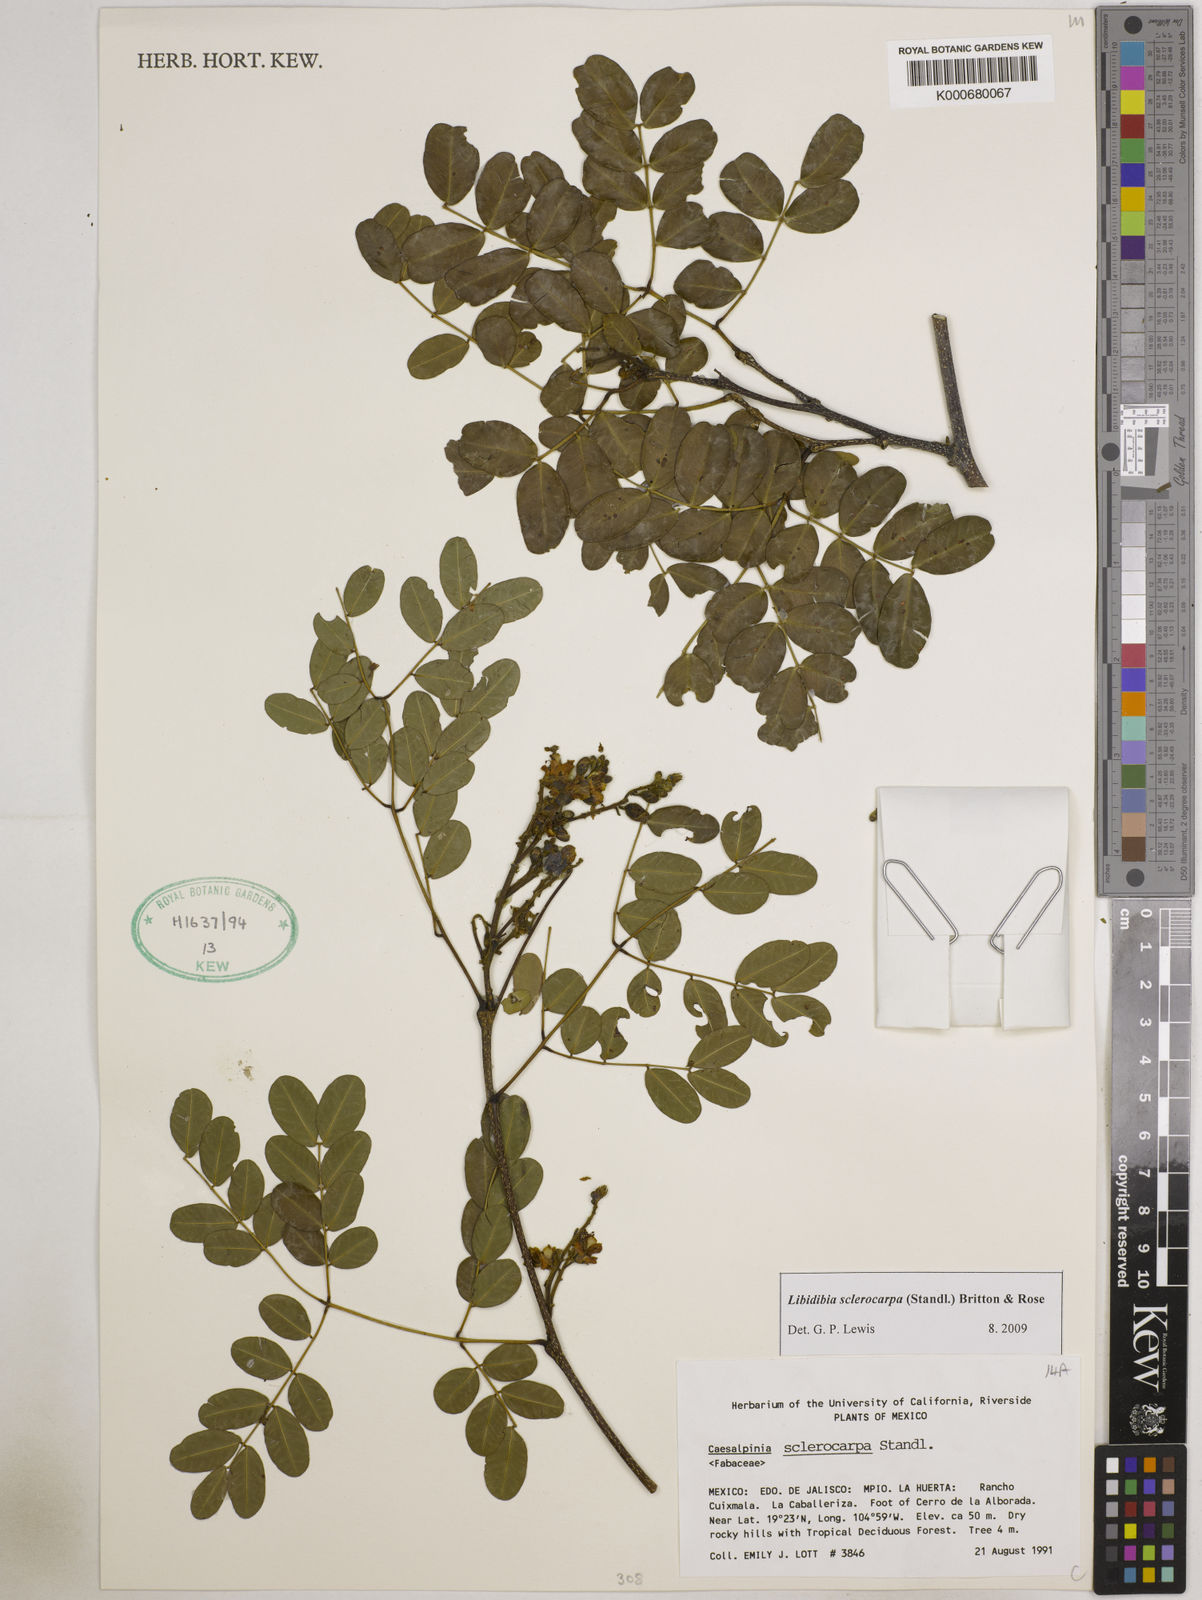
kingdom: Plantae
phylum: Tracheophyta
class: Magnoliopsida
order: Fabales
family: Fabaceae
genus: Libidibia
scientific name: Libidibia sclerocarpa
